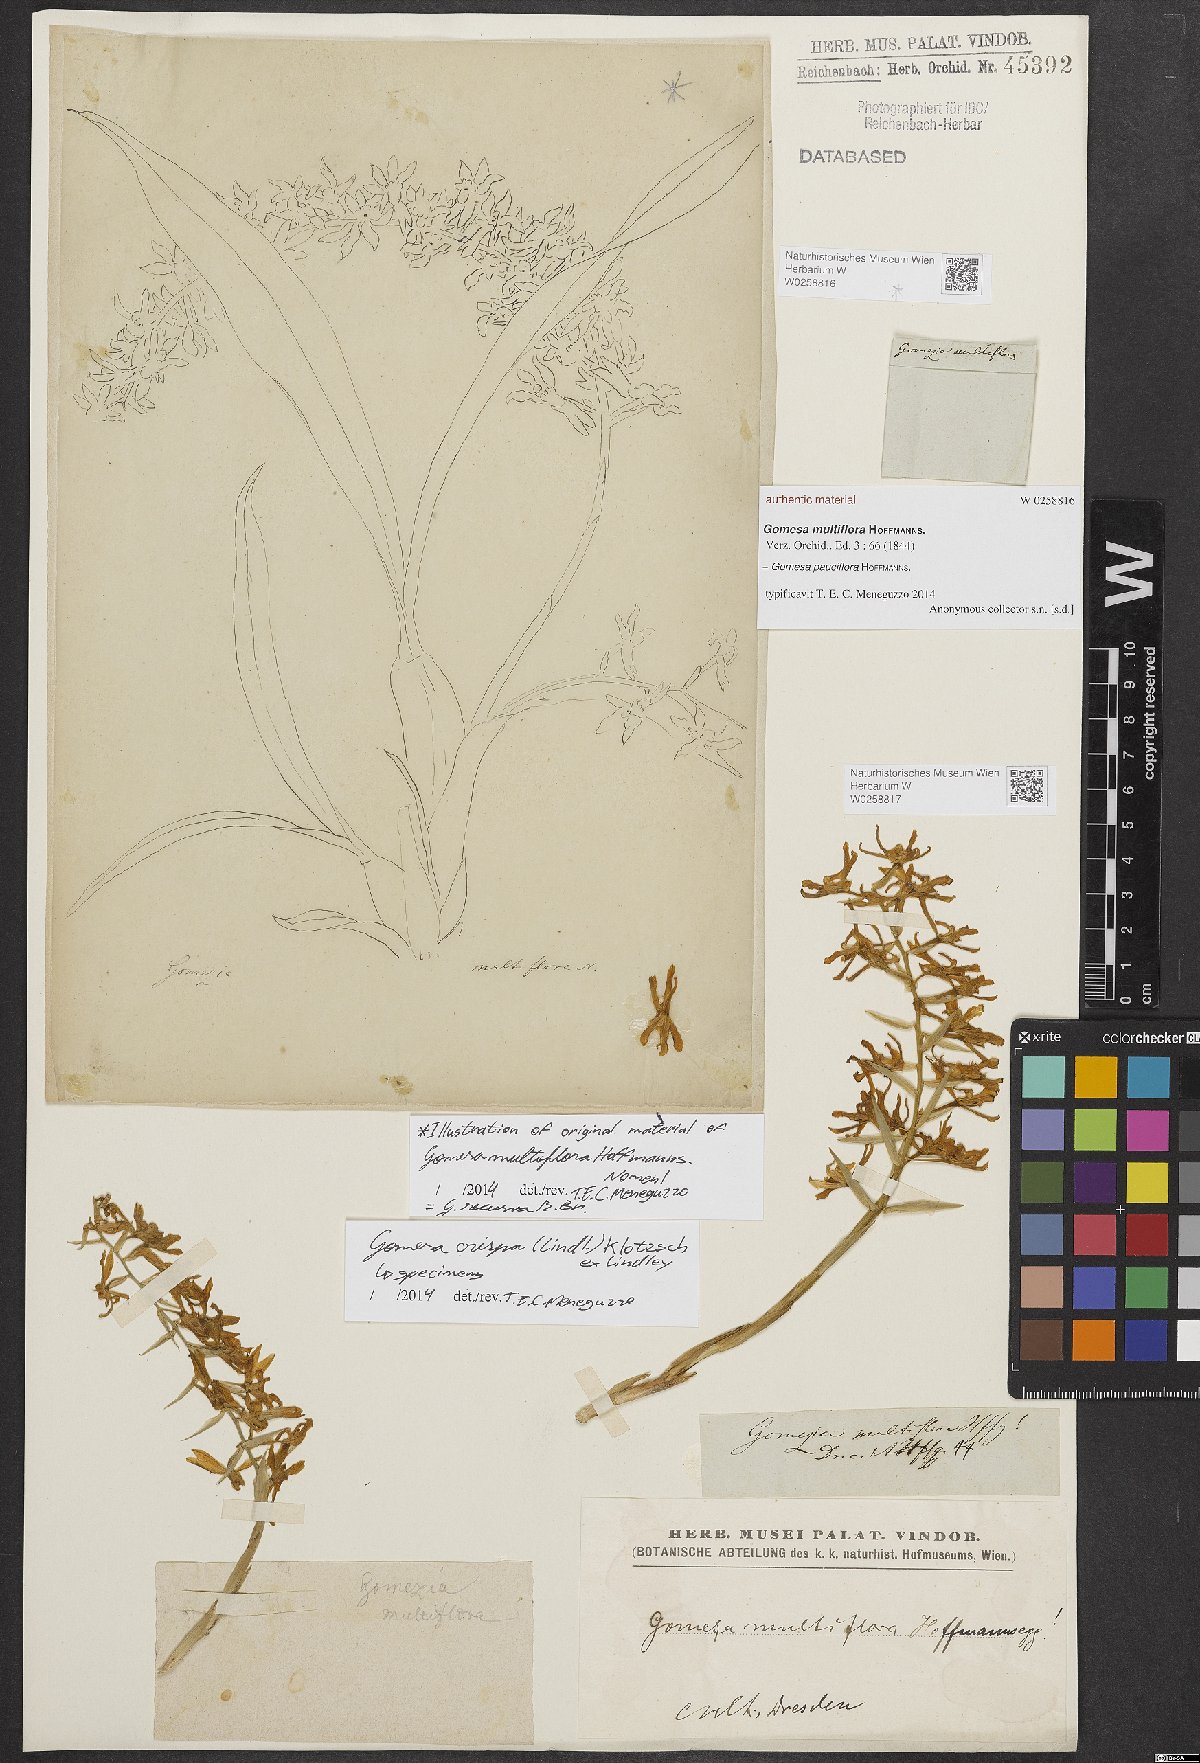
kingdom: Plantae
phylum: Tracheophyta
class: Liliopsida
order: Asparagales
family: Orchidaceae
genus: Gomesa
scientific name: Gomesa crispa
